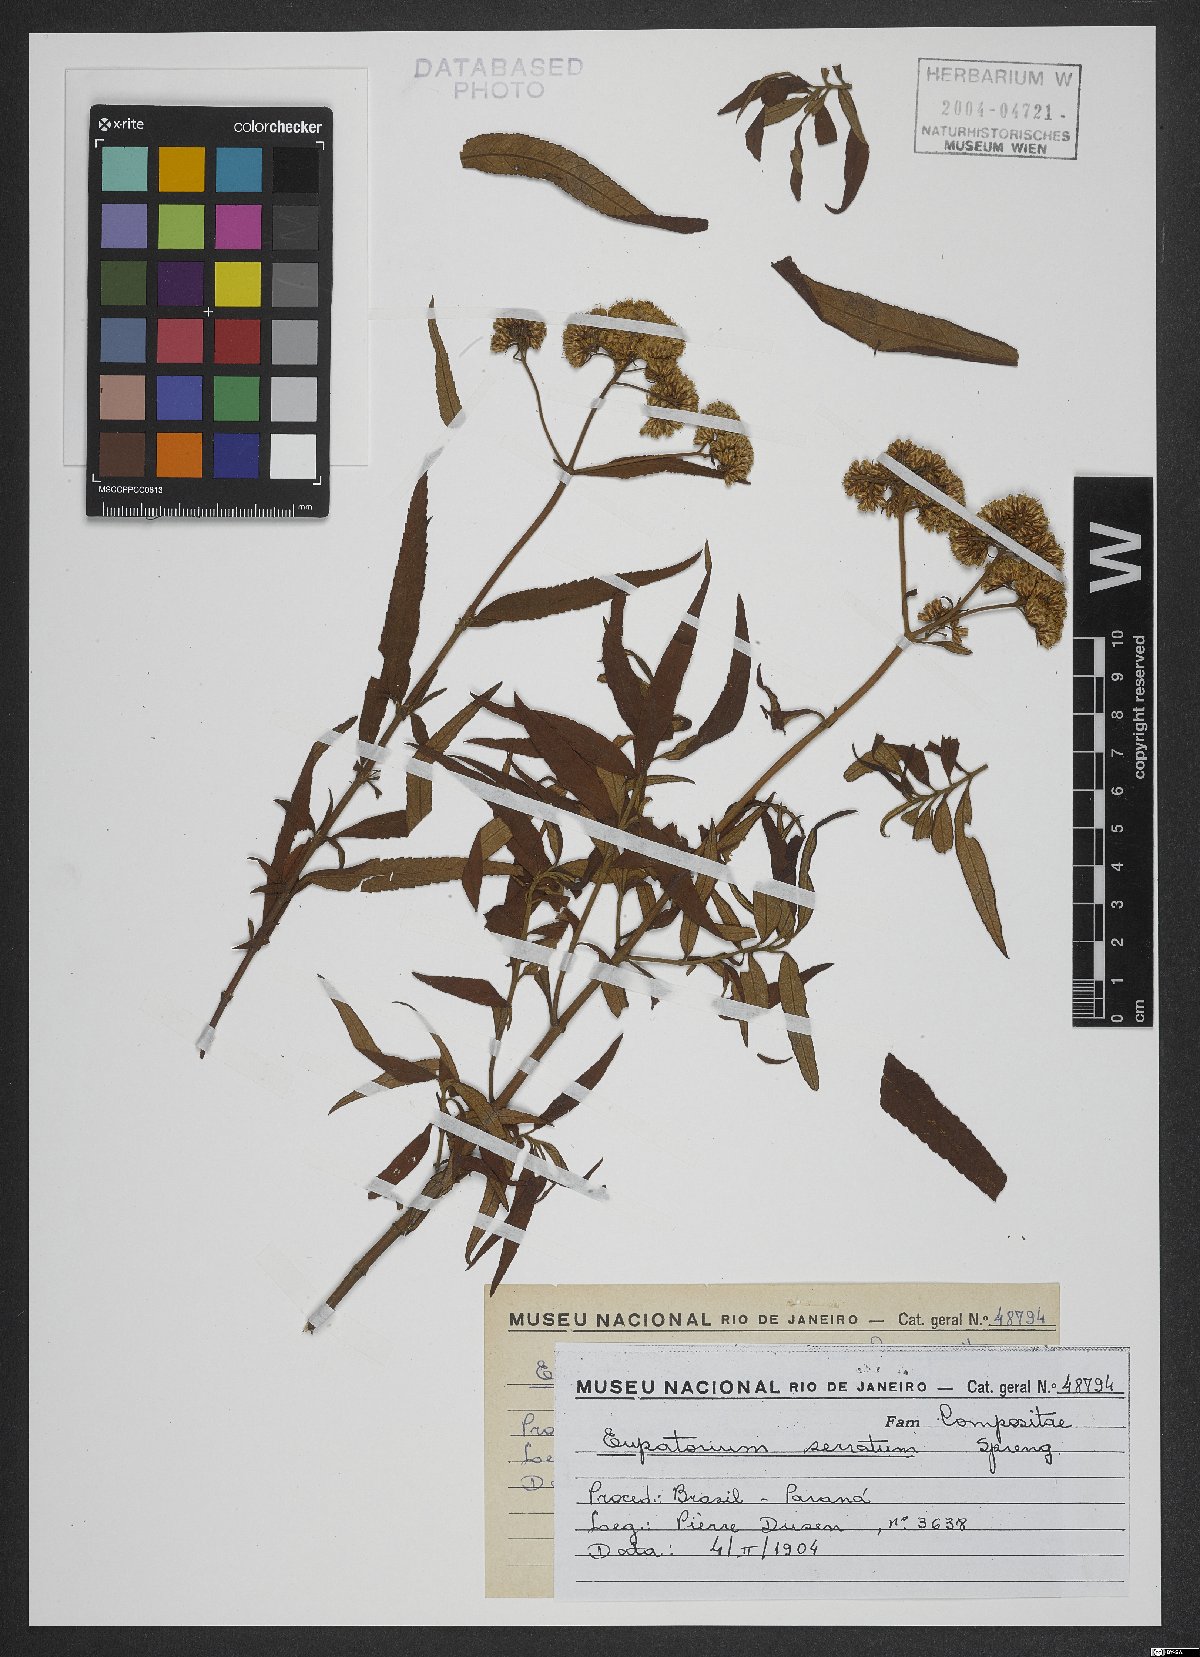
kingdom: Plantae
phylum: Tracheophyta
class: Magnoliopsida
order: Asterales
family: Asteraceae
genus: Grazielia
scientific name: Grazielia serrata
